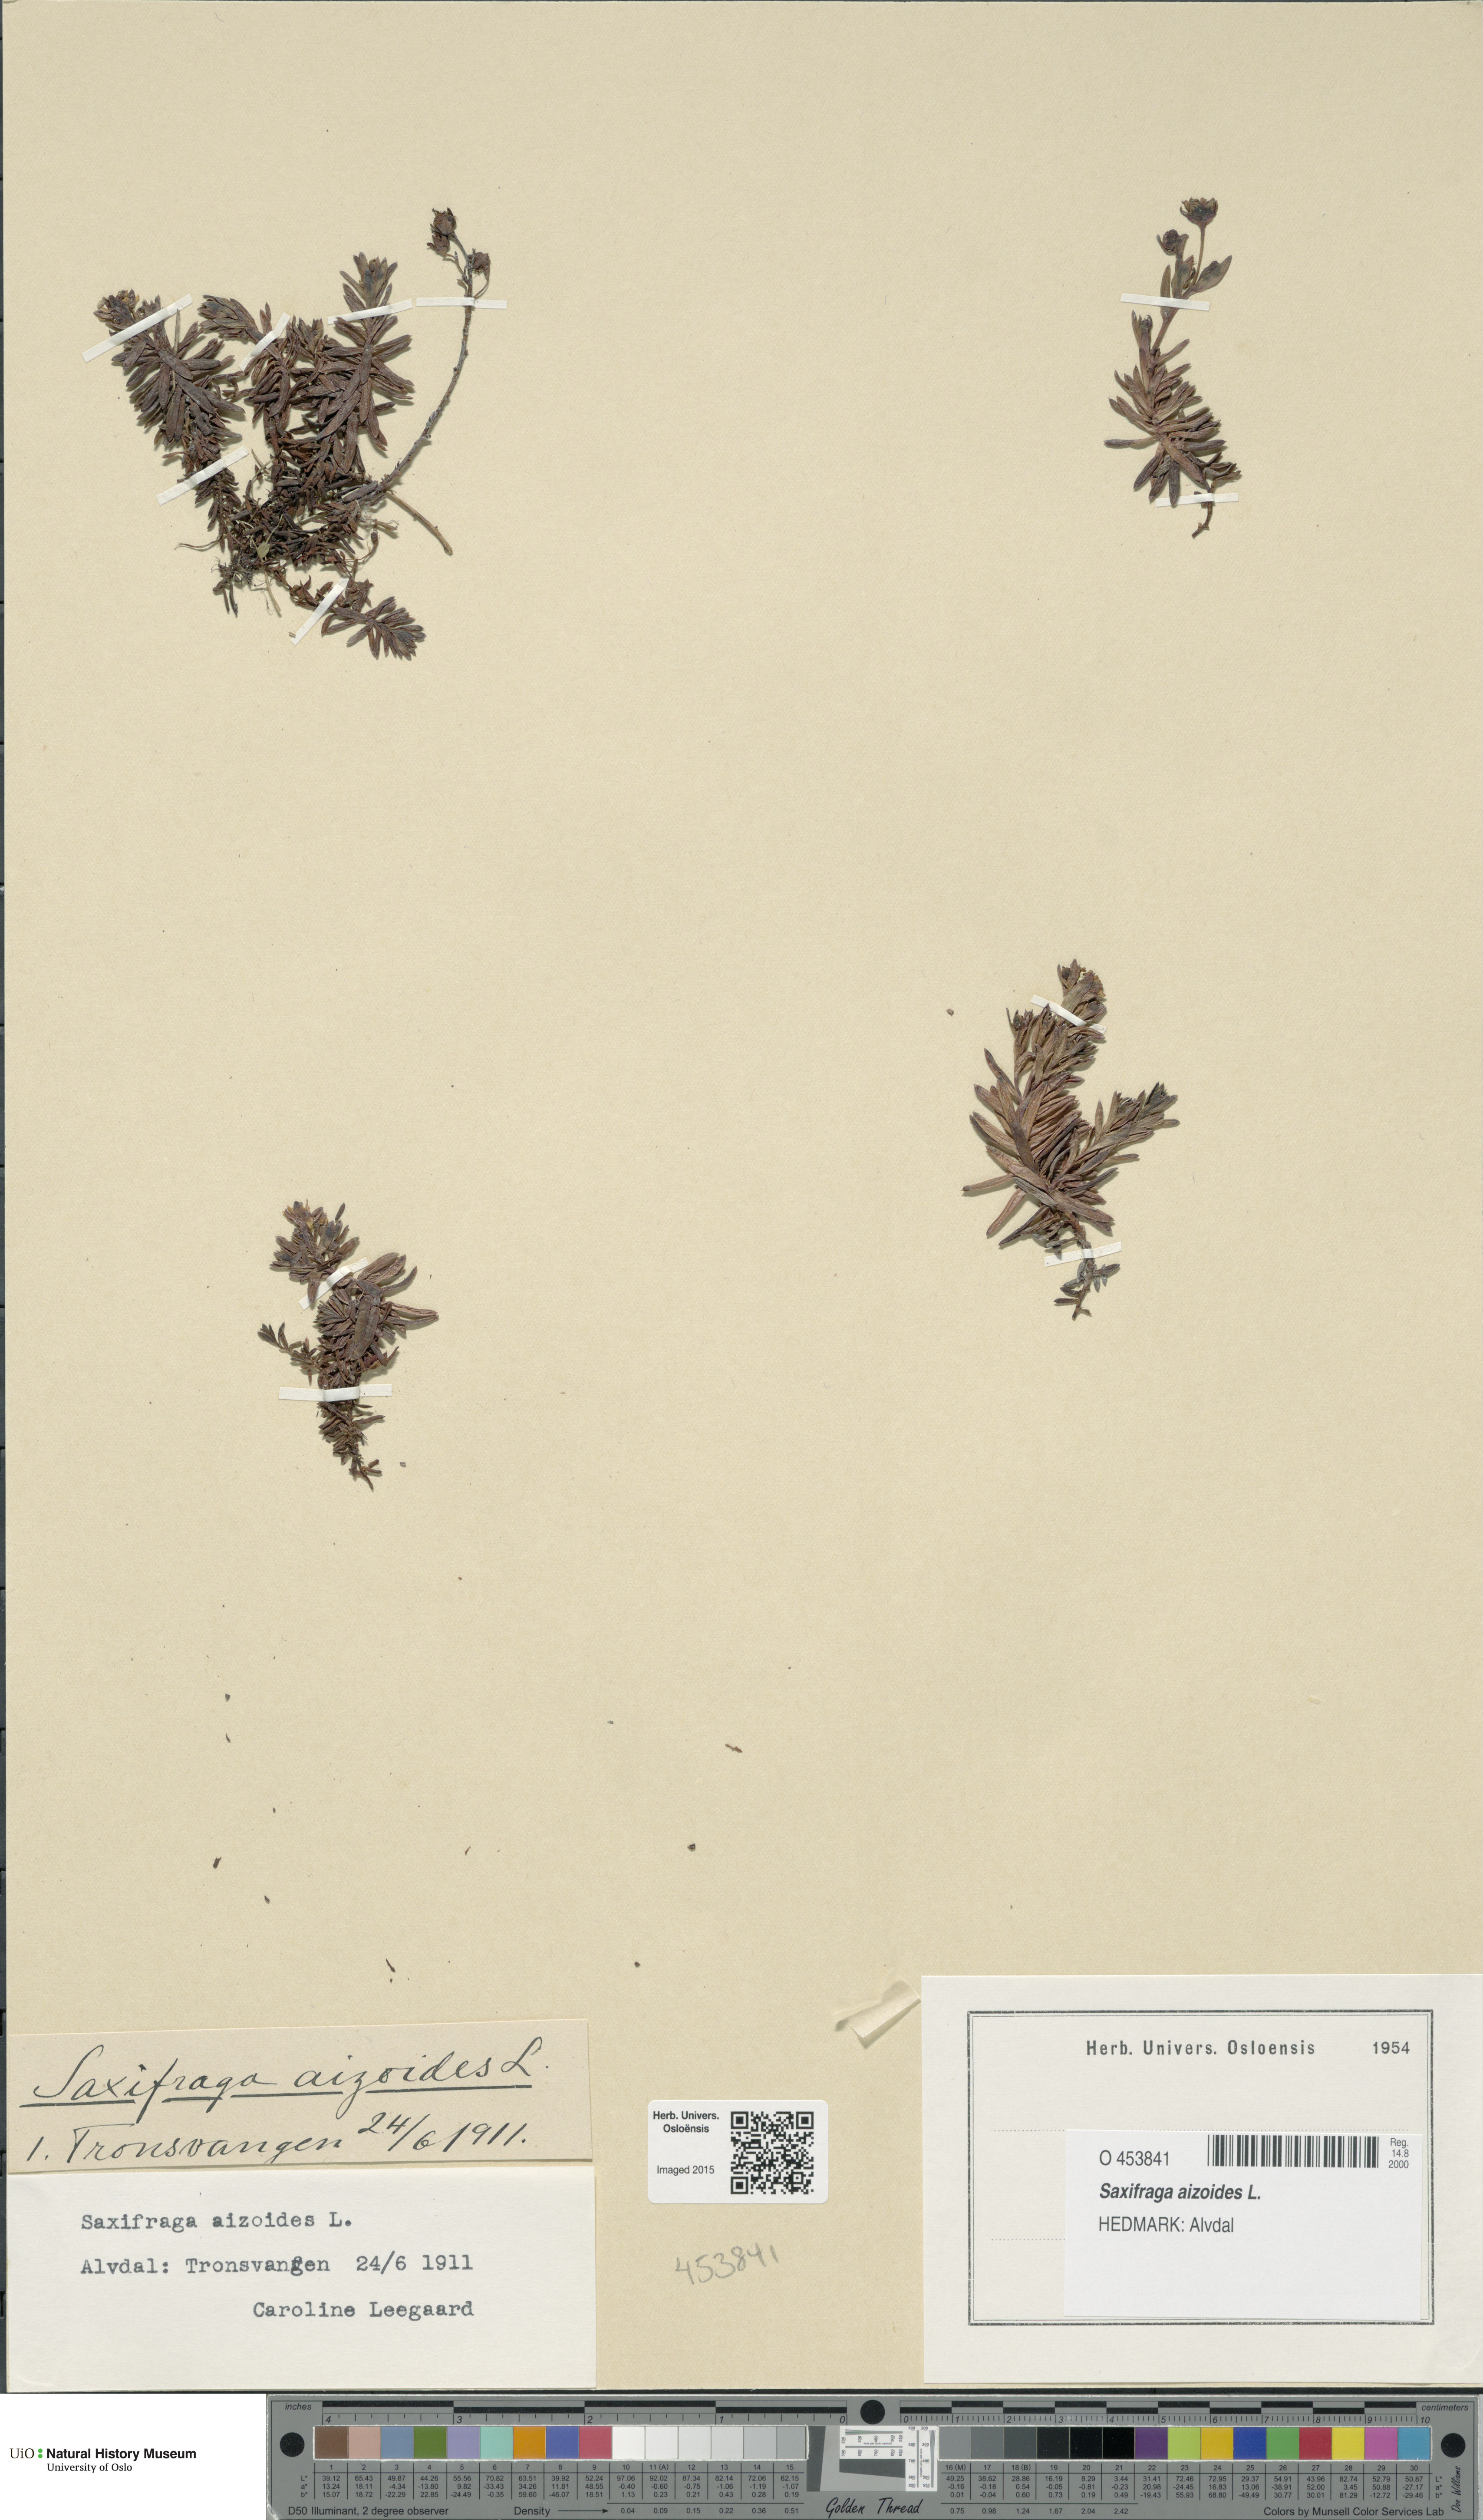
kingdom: Plantae
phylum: Tracheophyta
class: Magnoliopsida
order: Saxifragales
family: Saxifragaceae
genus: Saxifraga
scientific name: Saxifraga aizoides
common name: Yellow mountain saxifrage
